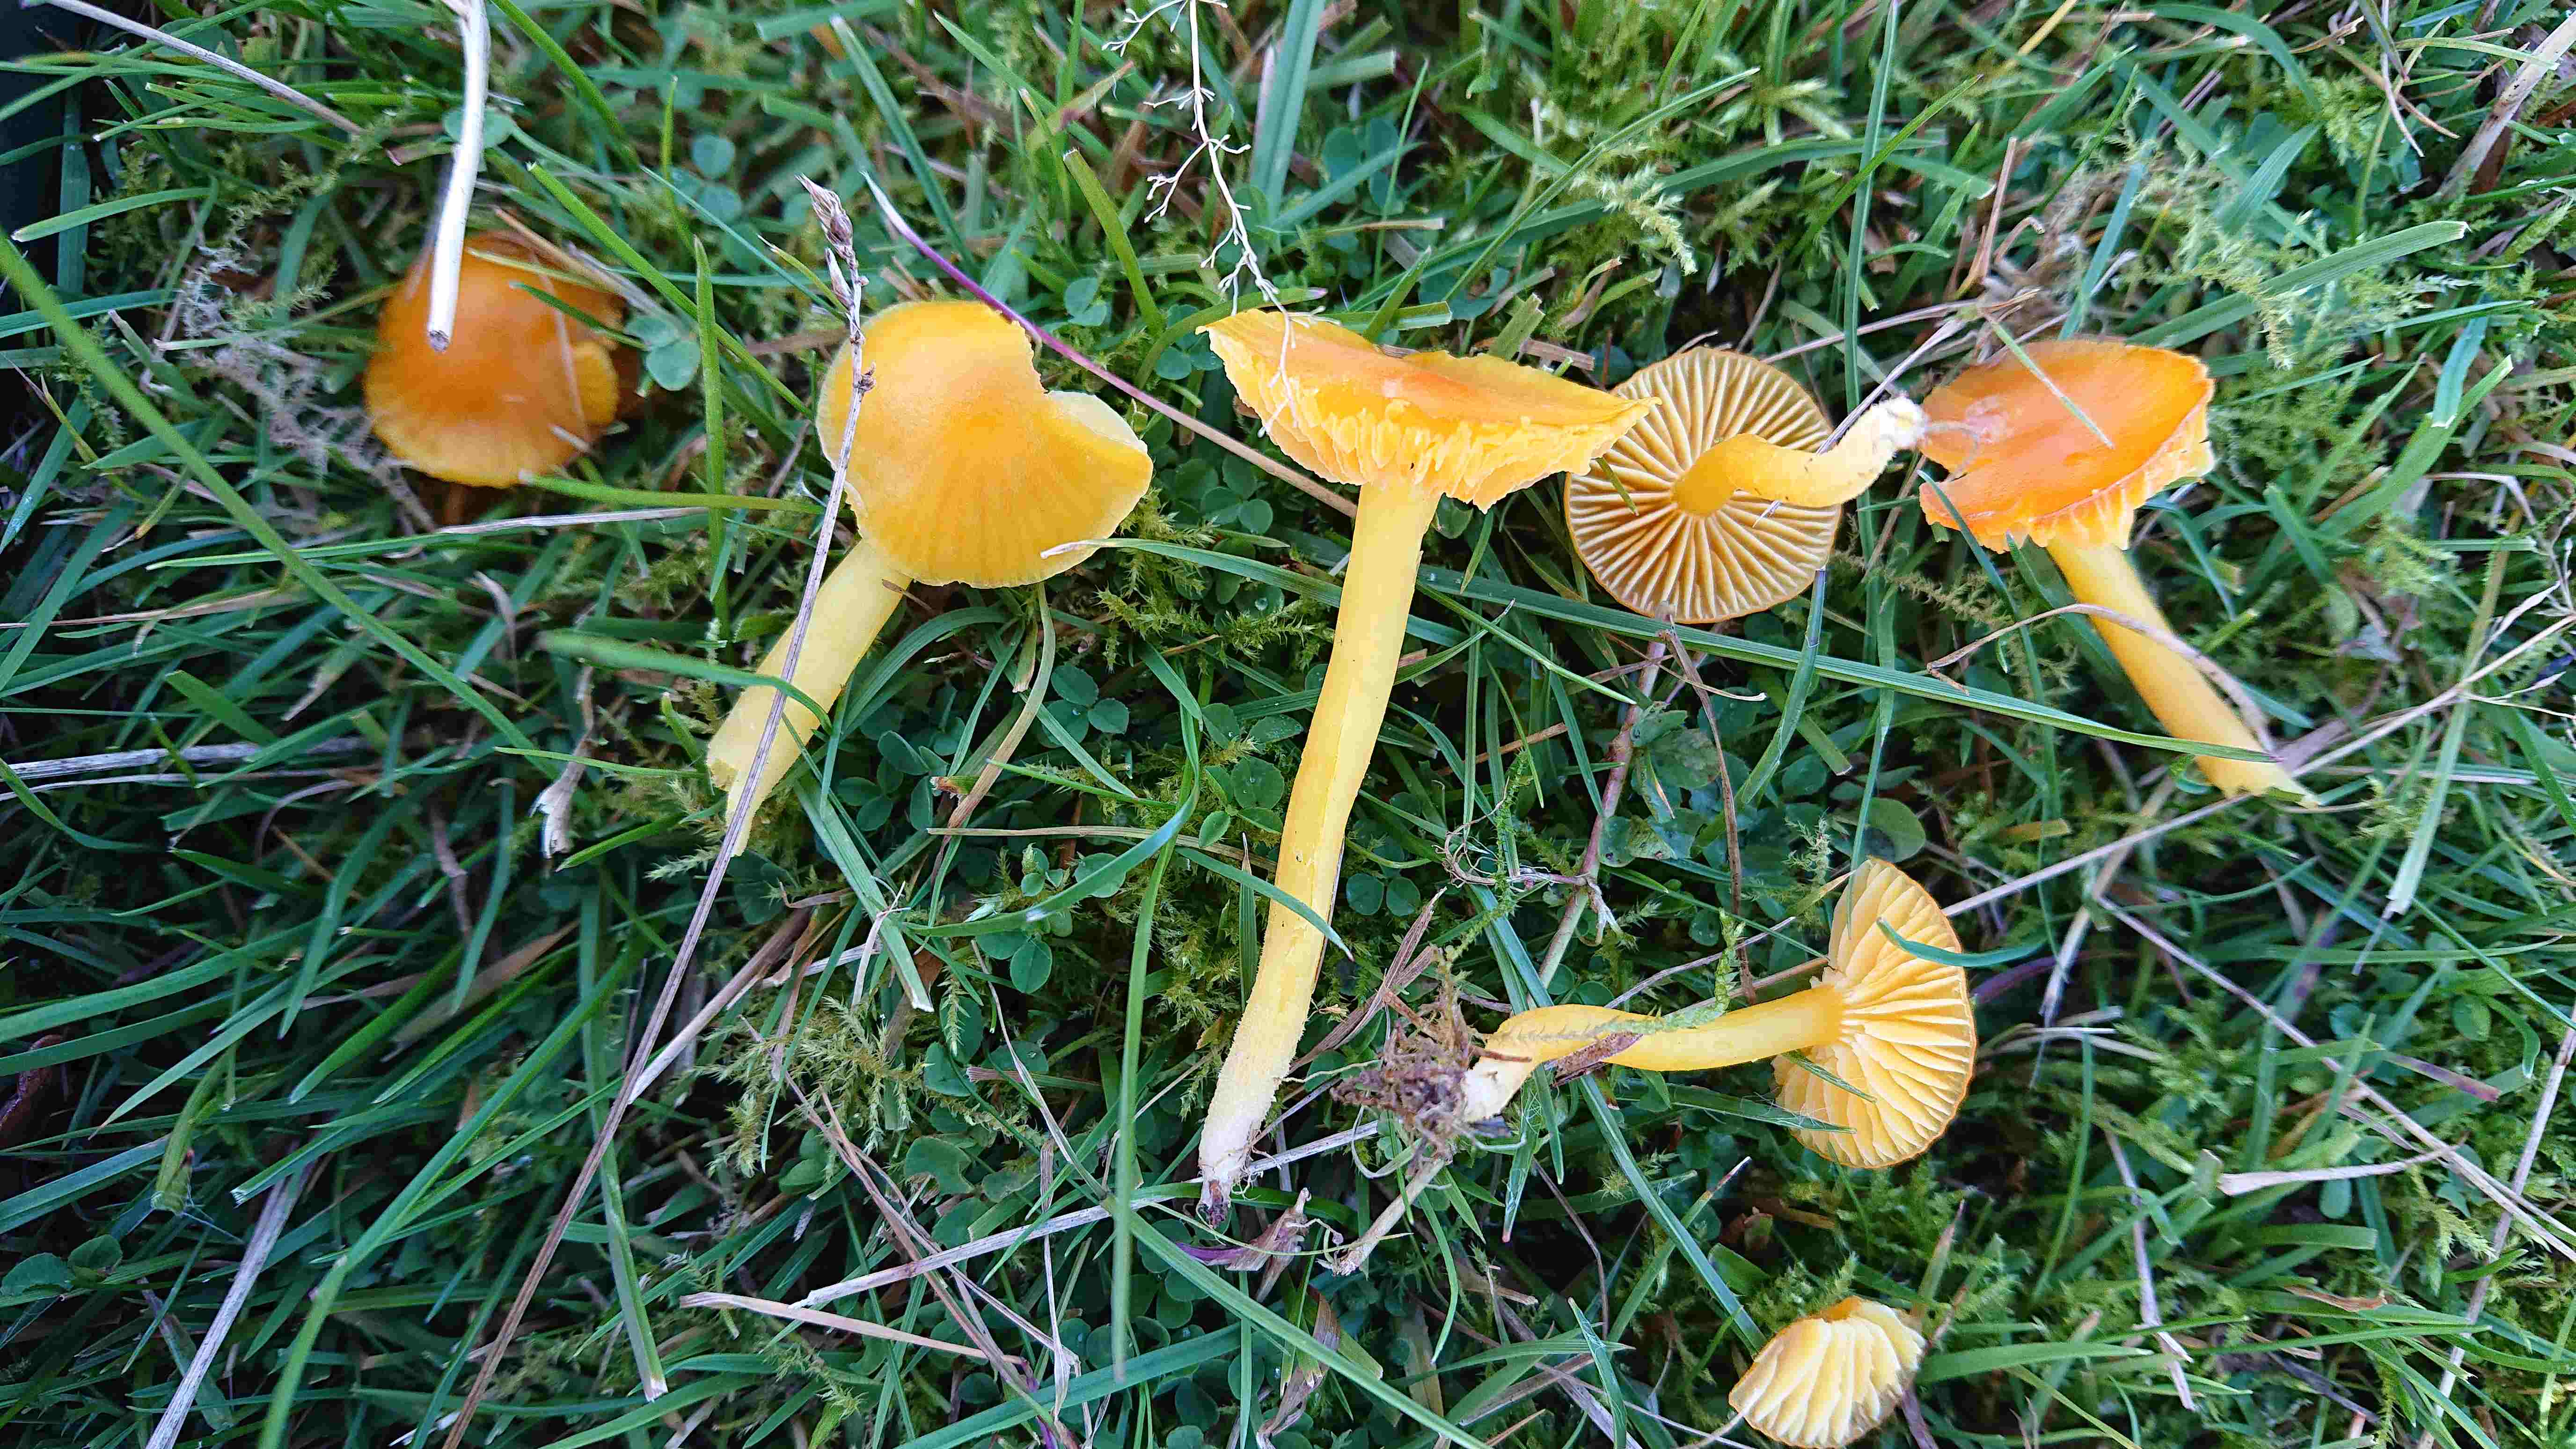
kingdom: Fungi
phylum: Basidiomycota
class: Agaricomycetes
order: Agaricales
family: Hygrophoraceae
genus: Hygrocybe
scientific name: Hygrocybe ceracea
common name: voksgul vokshat
